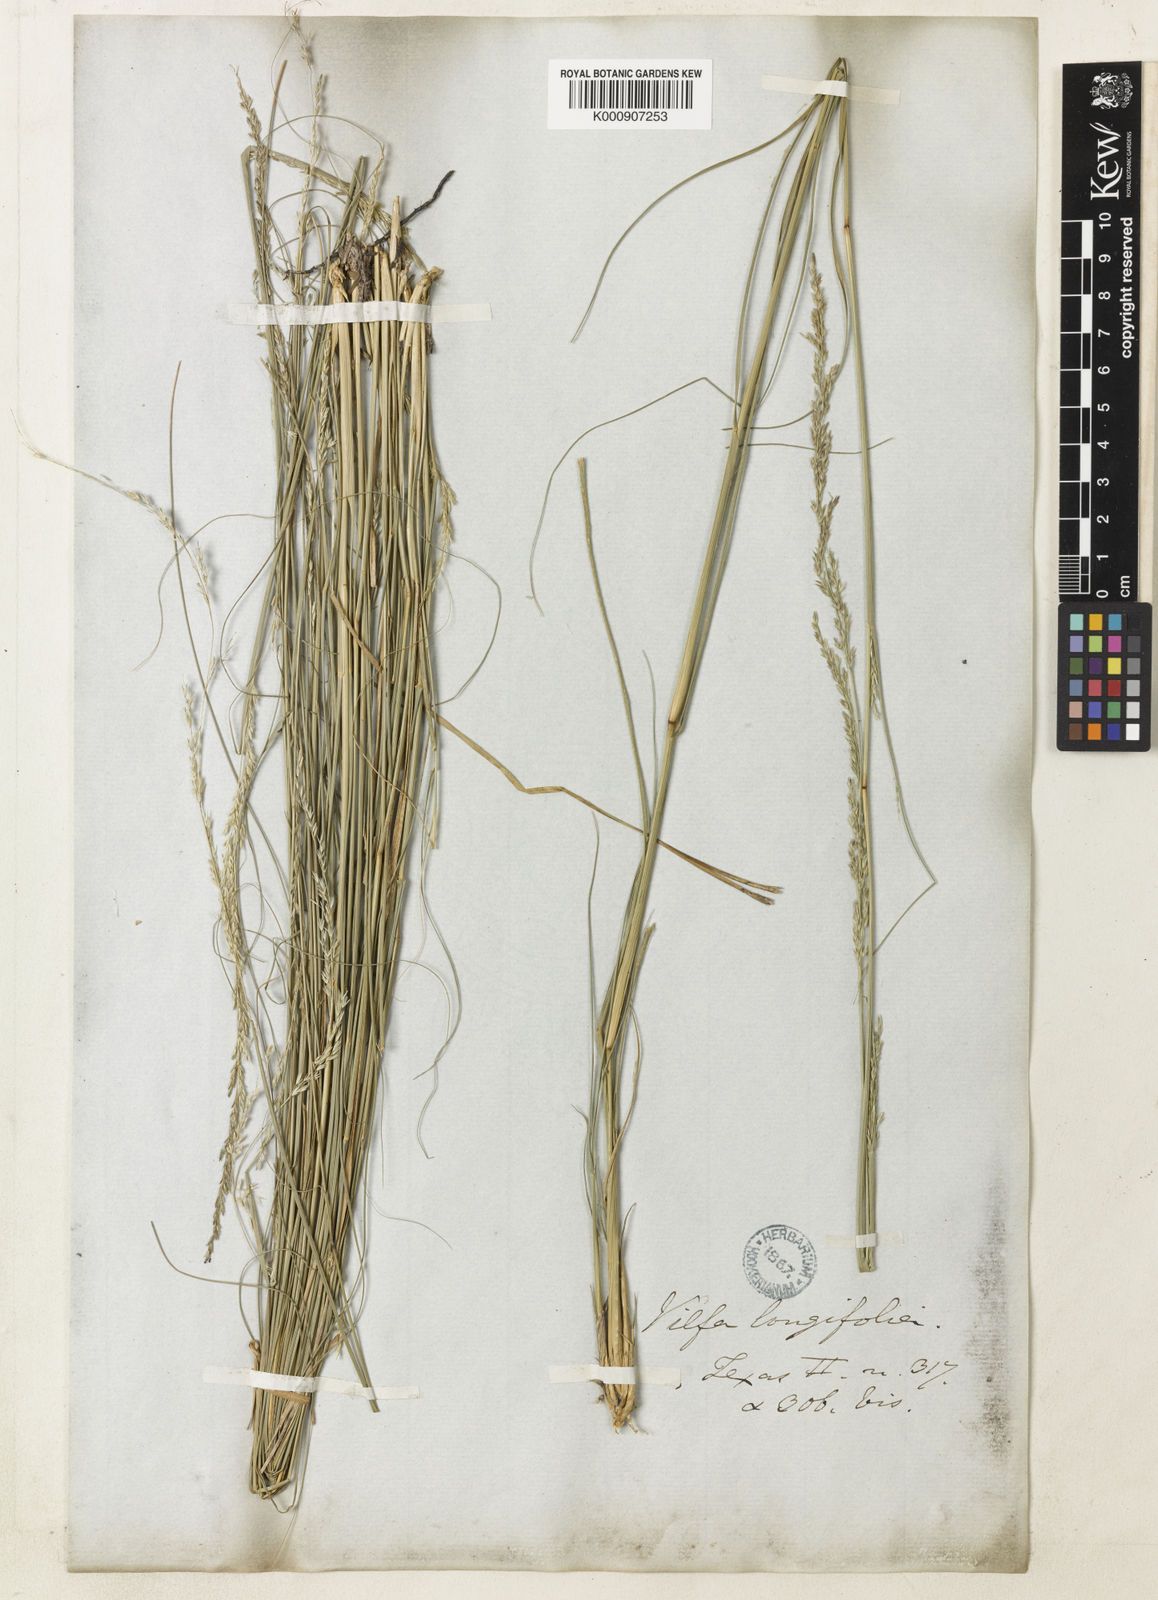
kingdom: Plantae
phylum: Tracheophyta
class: Liliopsida
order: Poales
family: Poaceae
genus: Sporobolus
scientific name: Sporobolus compositus
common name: Rough dropseed
